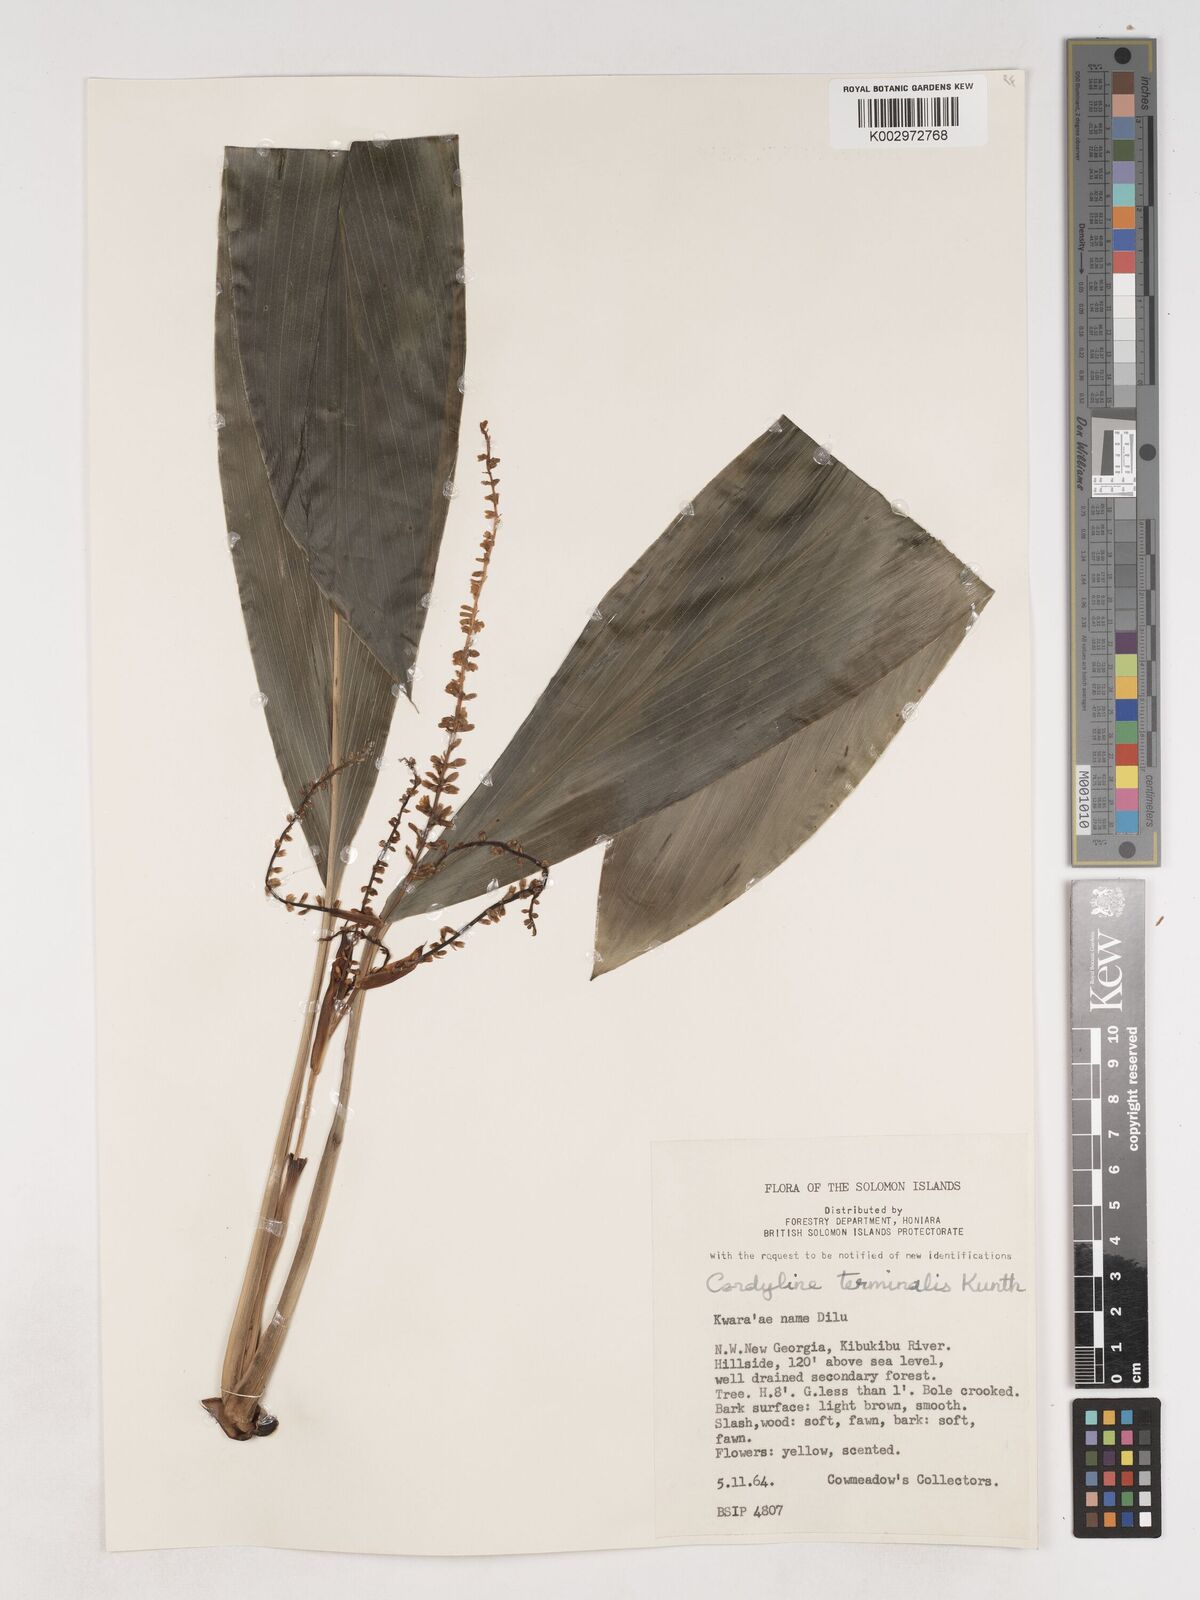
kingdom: Plantae
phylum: Tracheophyta
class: Liliopsida
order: Asparagales
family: Asparagaceae
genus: Cordyline
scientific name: Cordyline fruticosa
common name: Good-luck-plant
